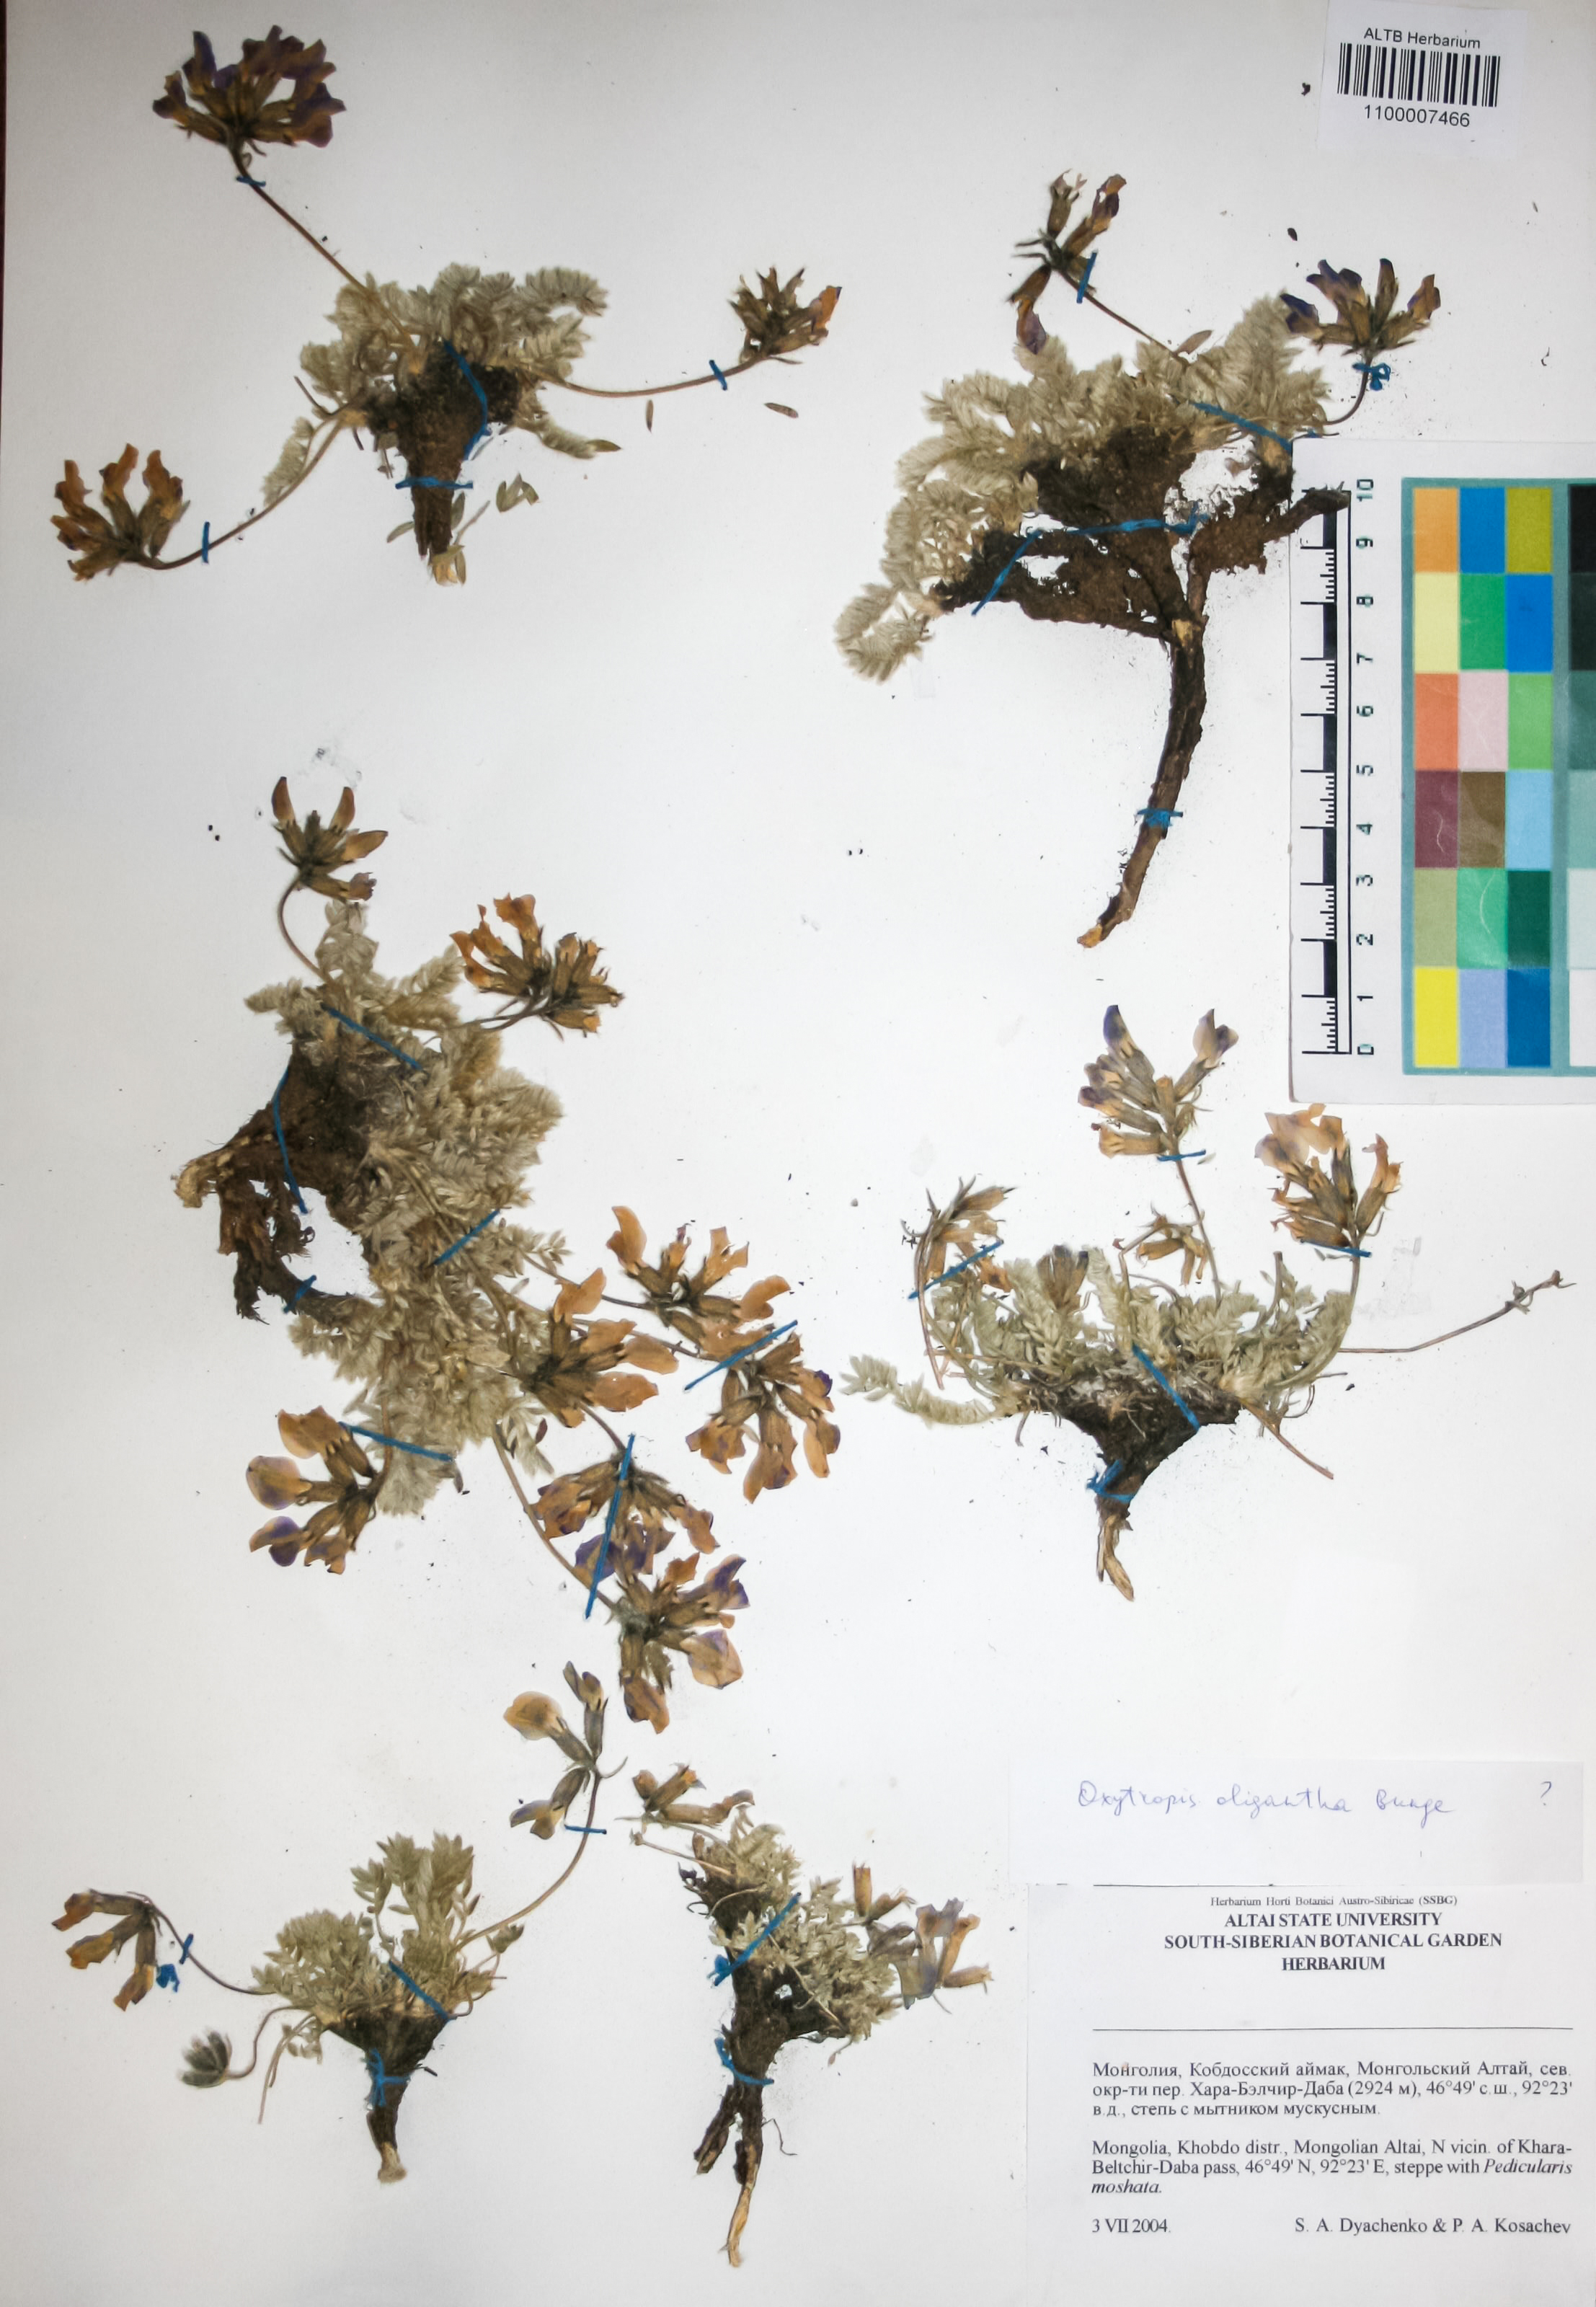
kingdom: Plantae
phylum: Tracheophyta
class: Magnoliopsida
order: Fabales
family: Fabaceae
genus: Oxytropis
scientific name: Oxytropis
